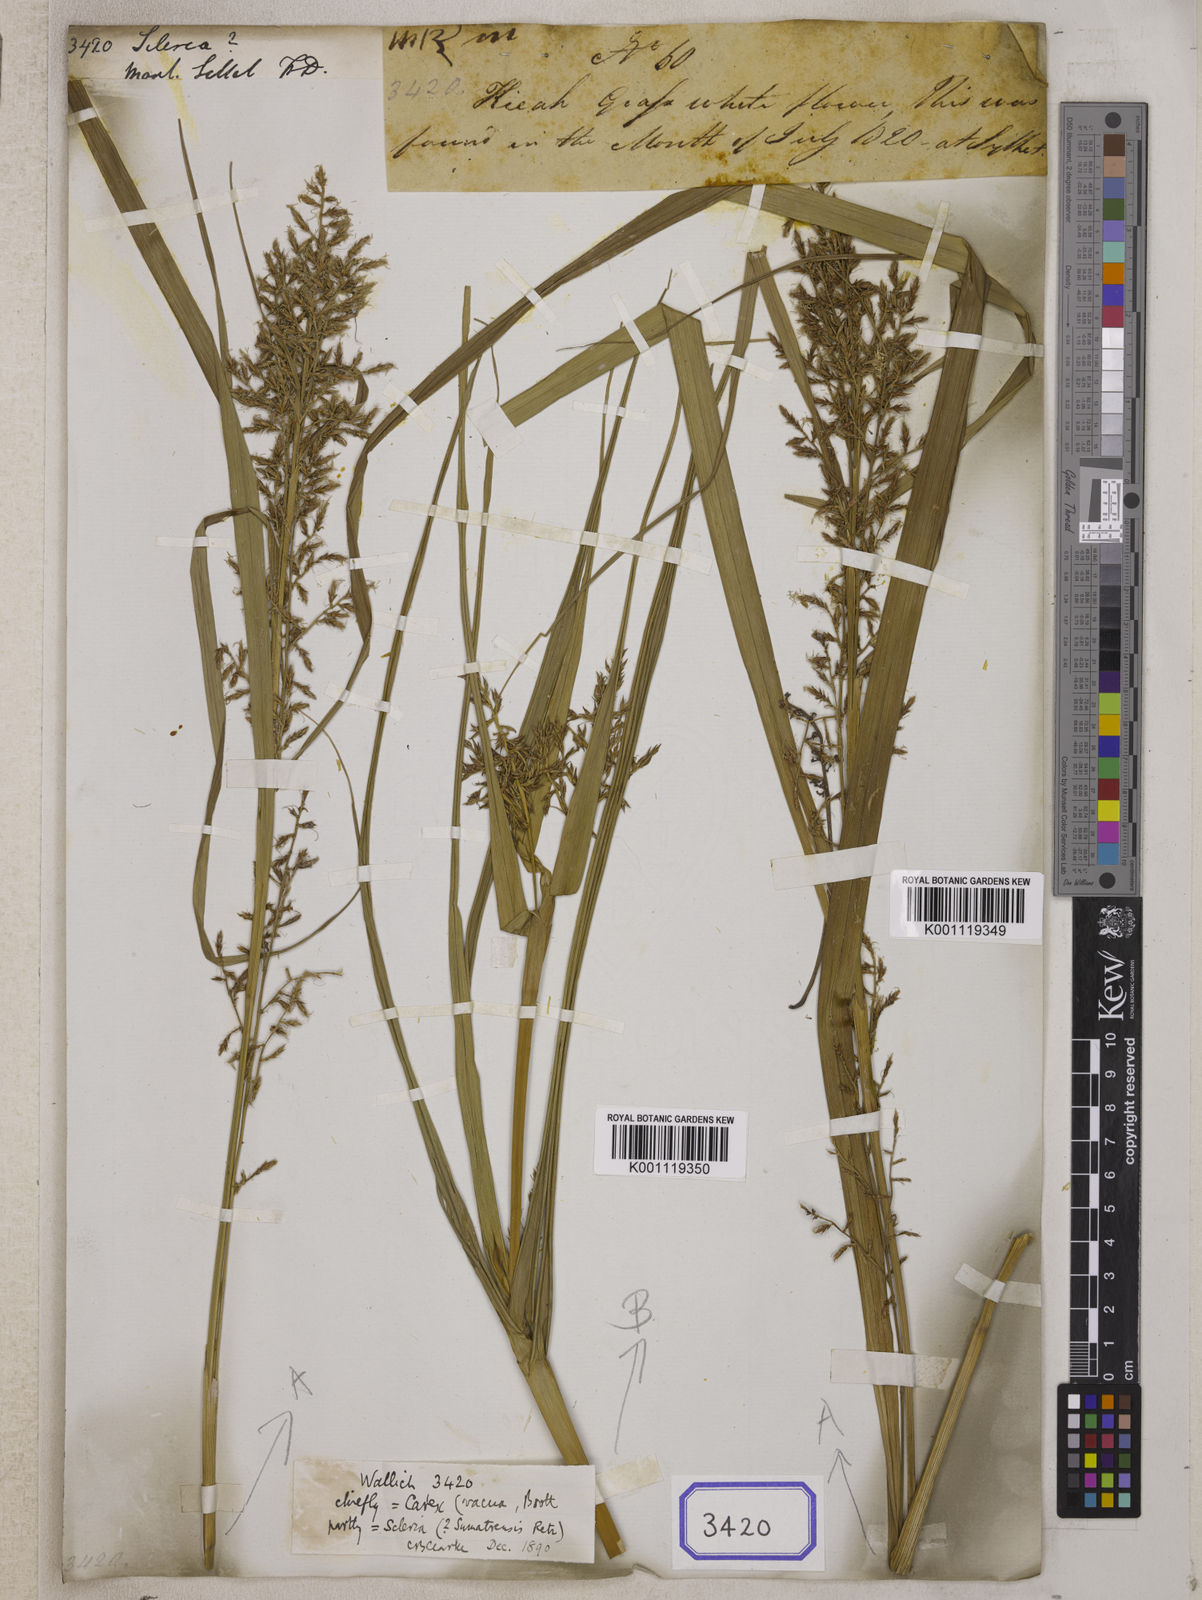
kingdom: Plantae
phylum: Tracheophyta
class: Liliopsida
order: Poales
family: Cyperaceae
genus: Scleria
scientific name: Scleria
